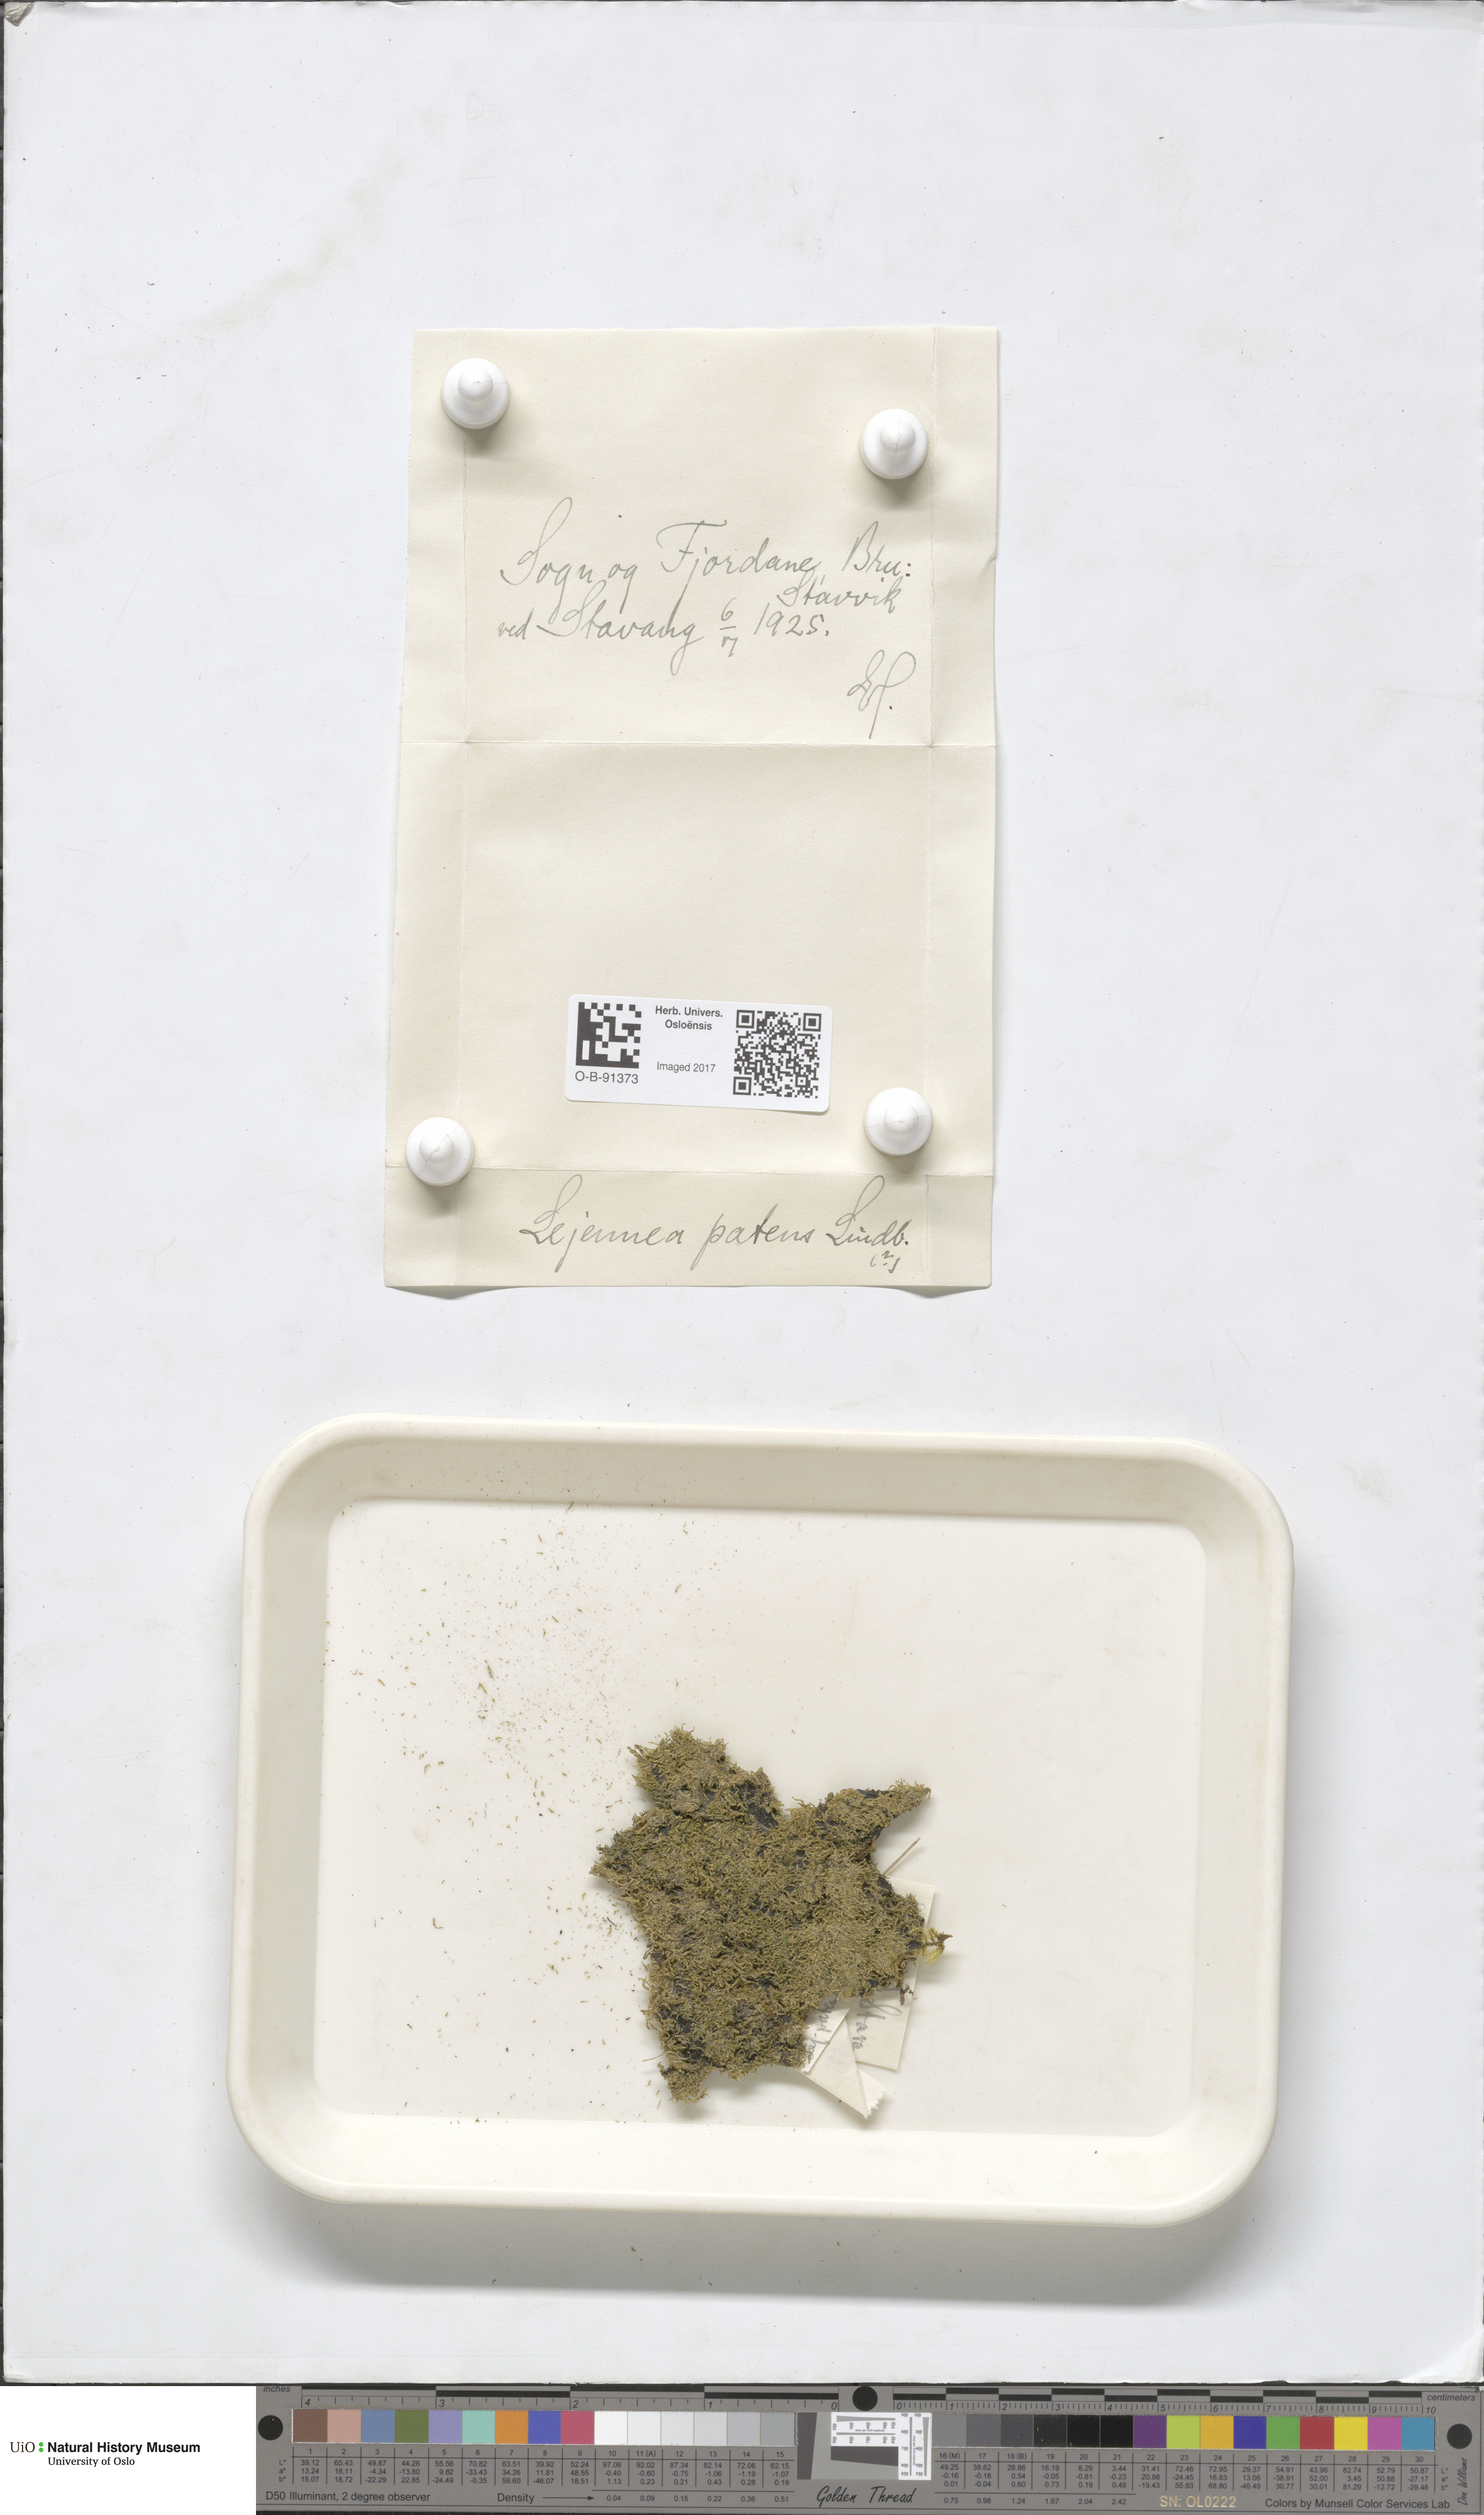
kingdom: Plantae
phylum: Marchantiophyta
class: Jungermanniopsida
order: Porellales
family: Lejeuneaceae
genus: Lejeunea
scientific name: Lejeunea patens
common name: Pearl pouncewort
